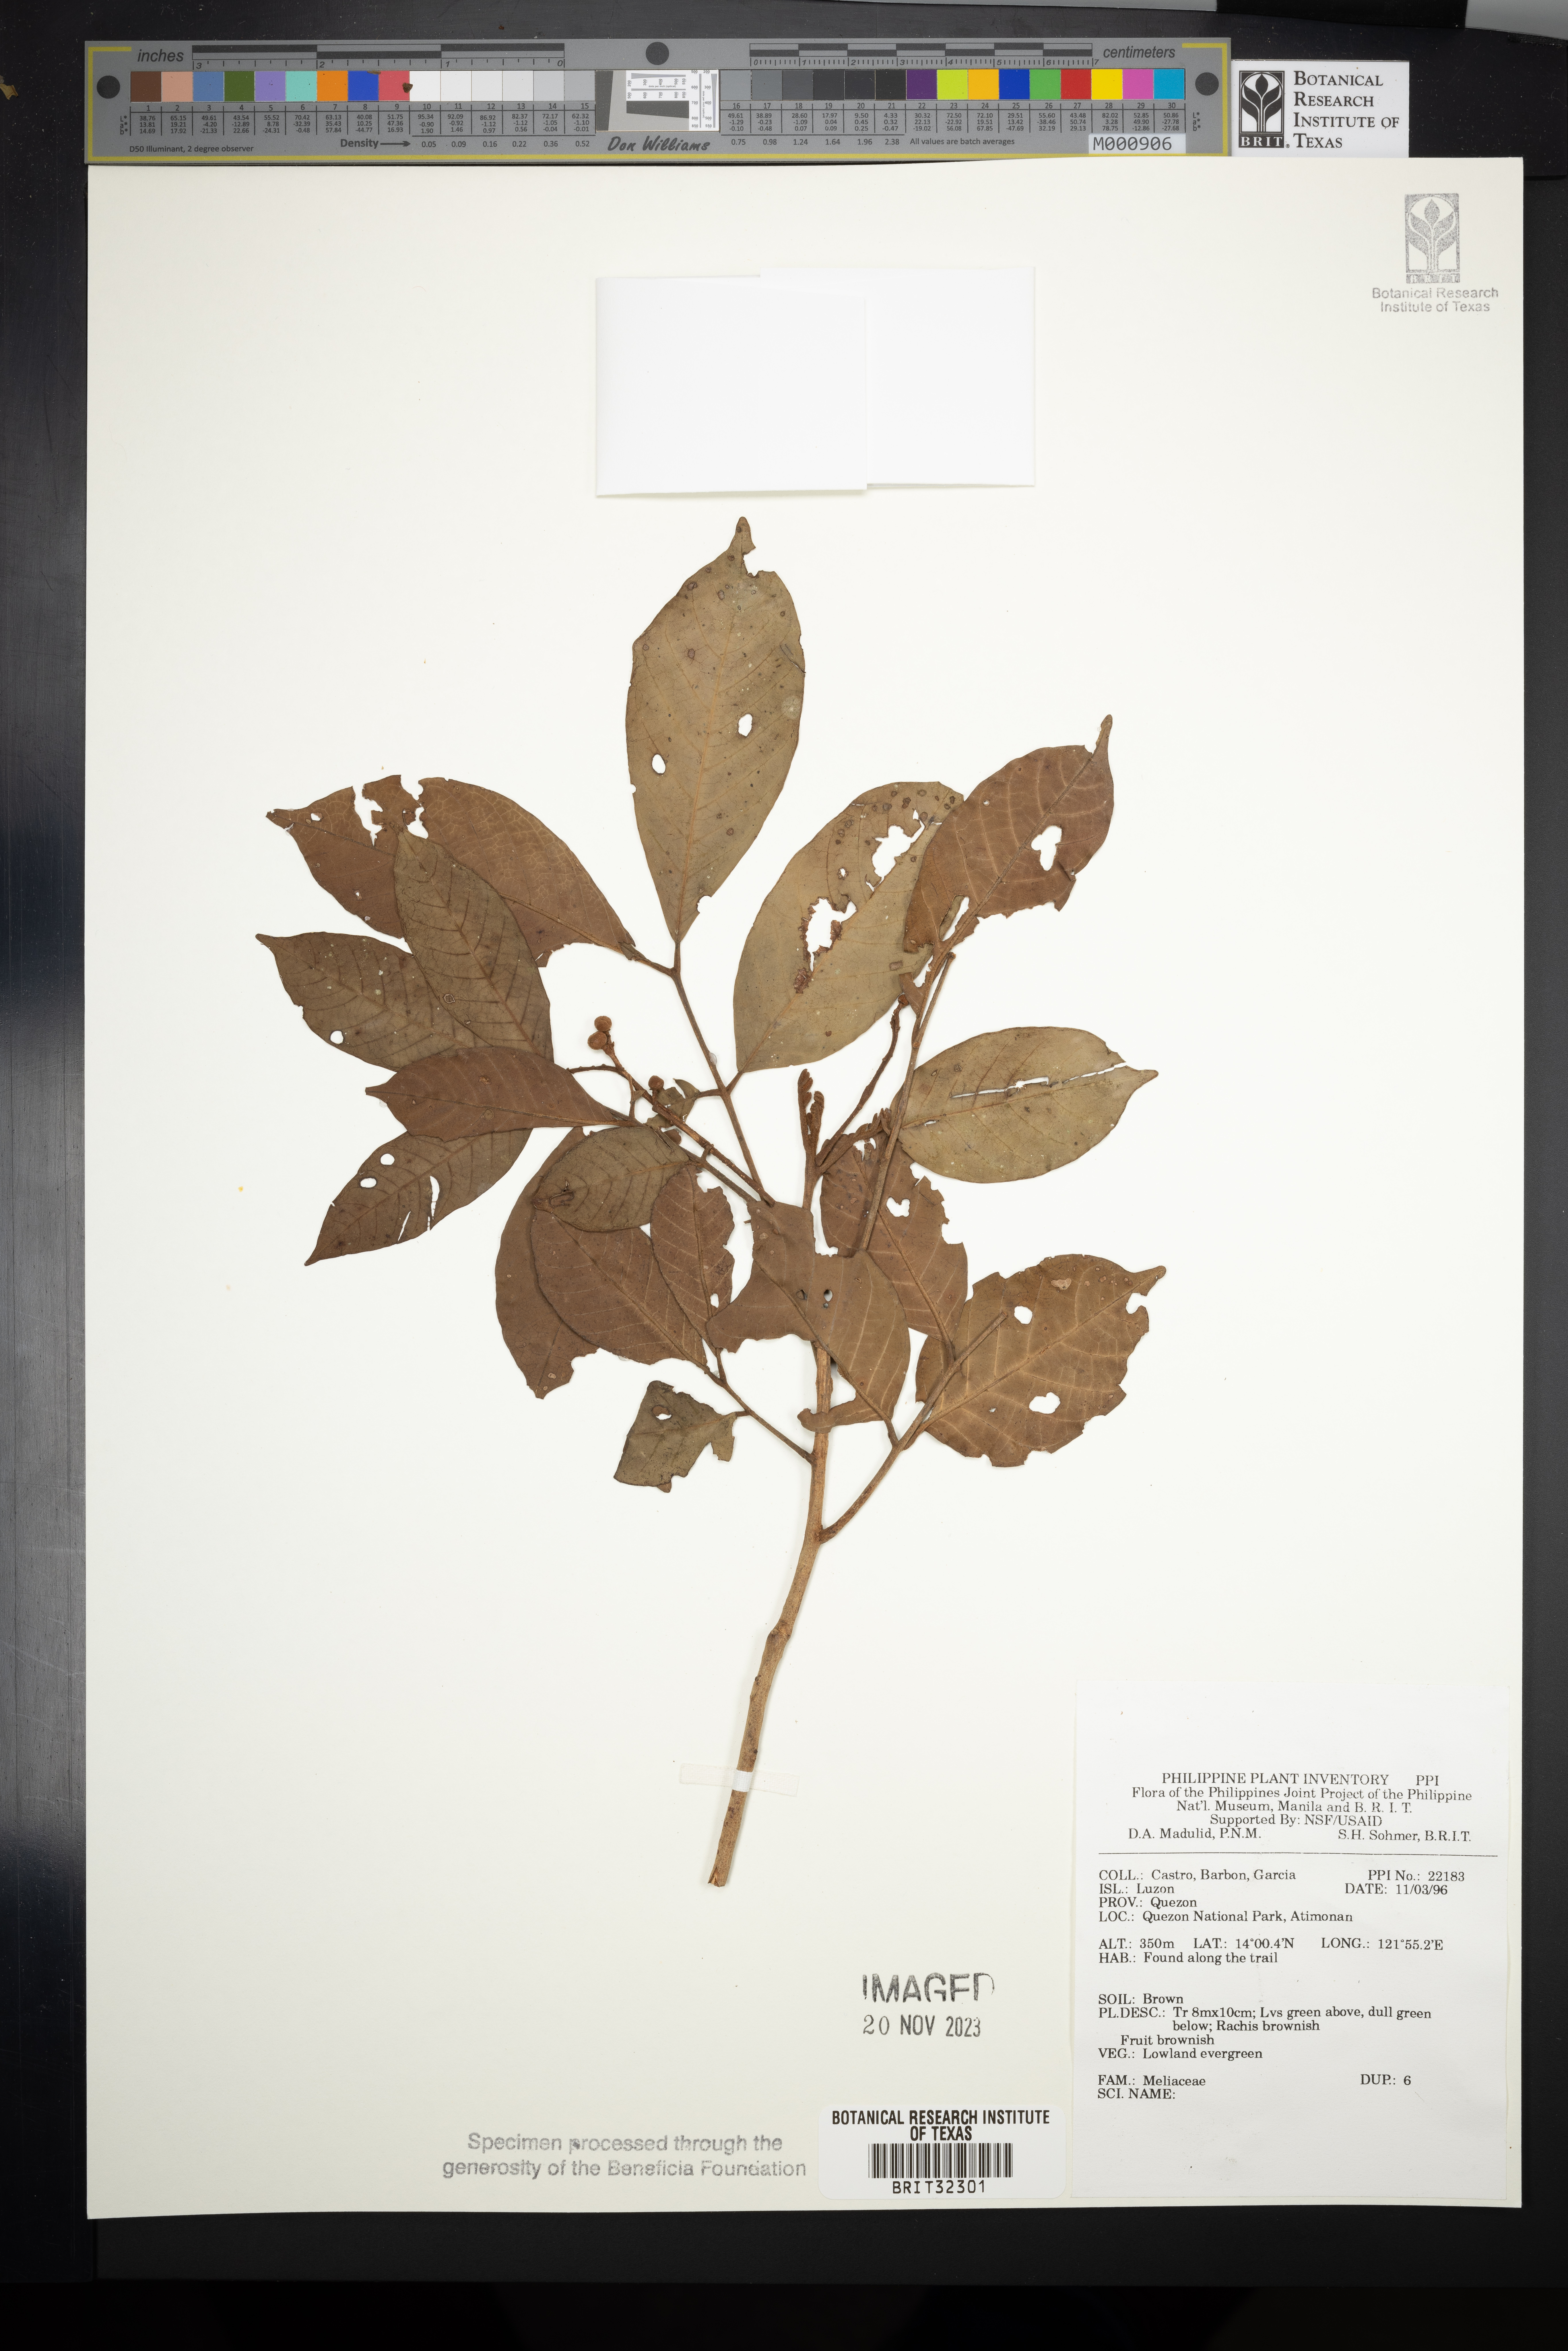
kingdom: Plantae
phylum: Tracheophyta
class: Magnoliopsida
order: Sapindales
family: Meliaceae
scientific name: Meliaceae
